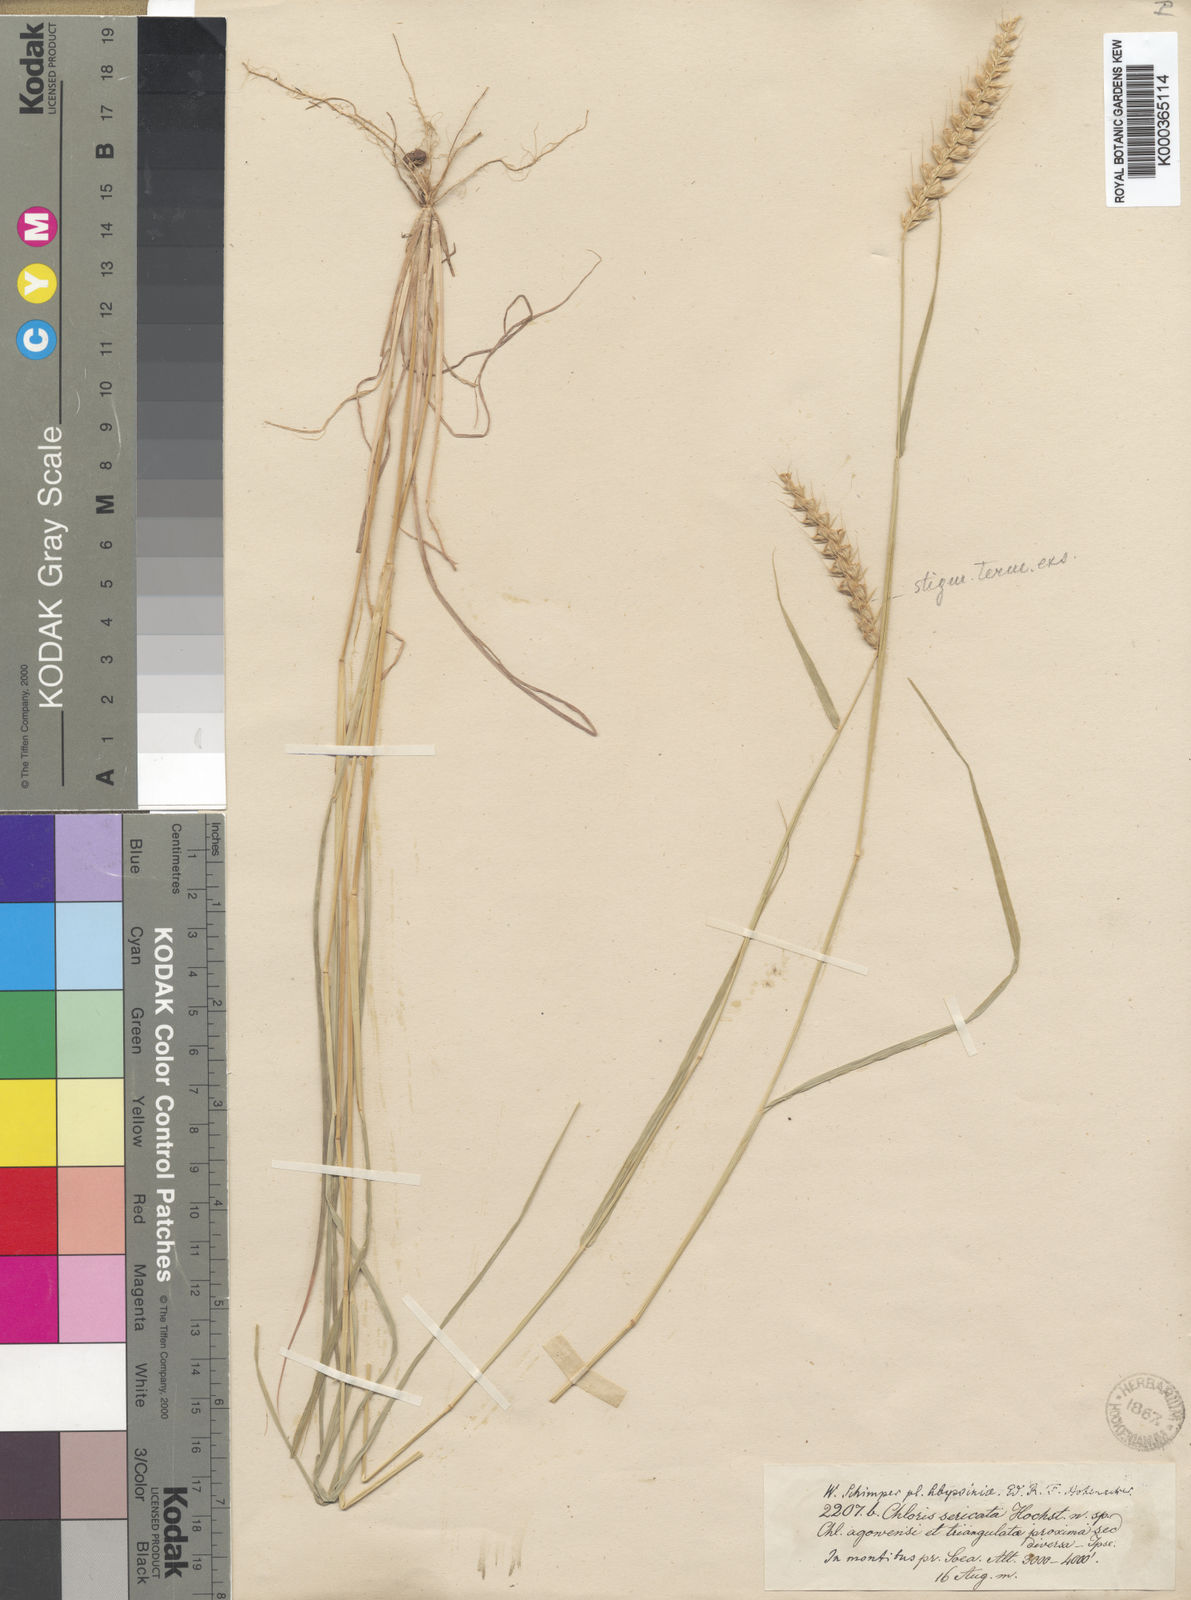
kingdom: Plantae
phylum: Tracheophyta
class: Liliopsida
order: Poales
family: Poaceae
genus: Tetrapogon
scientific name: Tetrapogon tenellus
